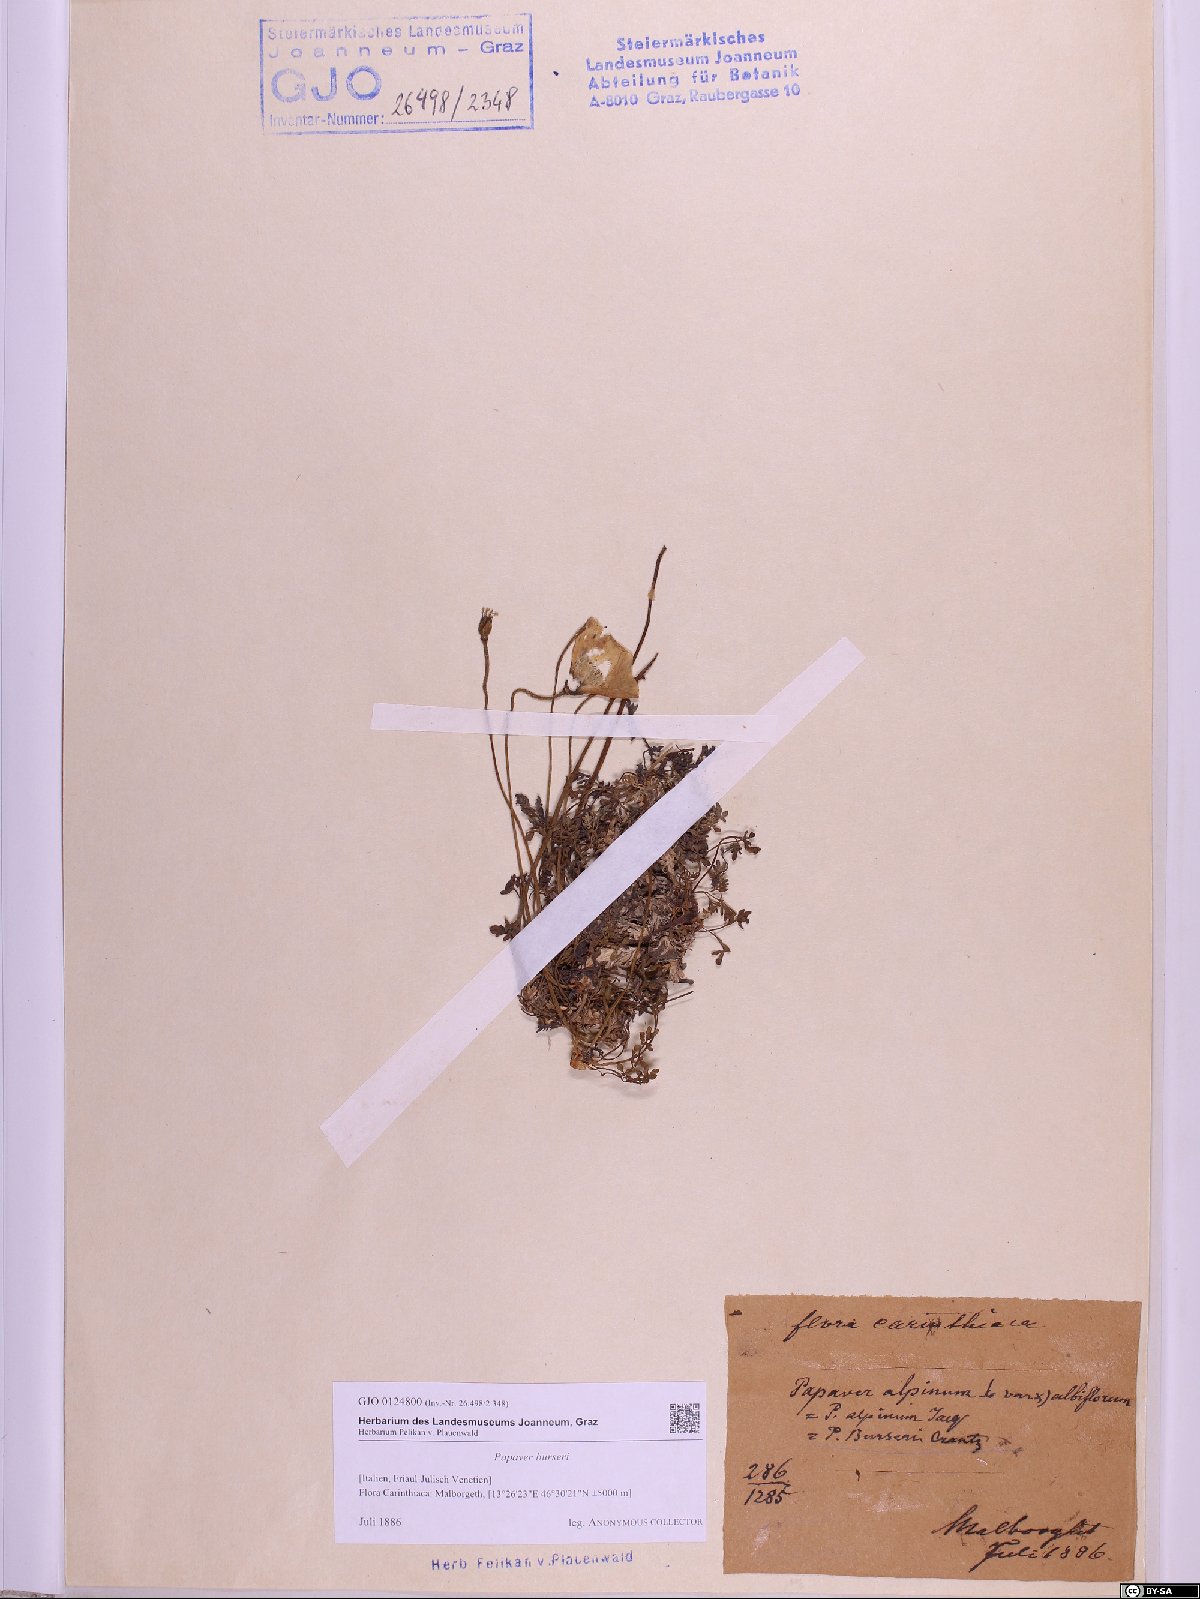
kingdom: Plantae
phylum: Tracheophyta
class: Magnoliopsida
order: Ranunculales
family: Papaveraceae
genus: Papaver
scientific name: Papaver alpinum
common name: Austrian poppy
